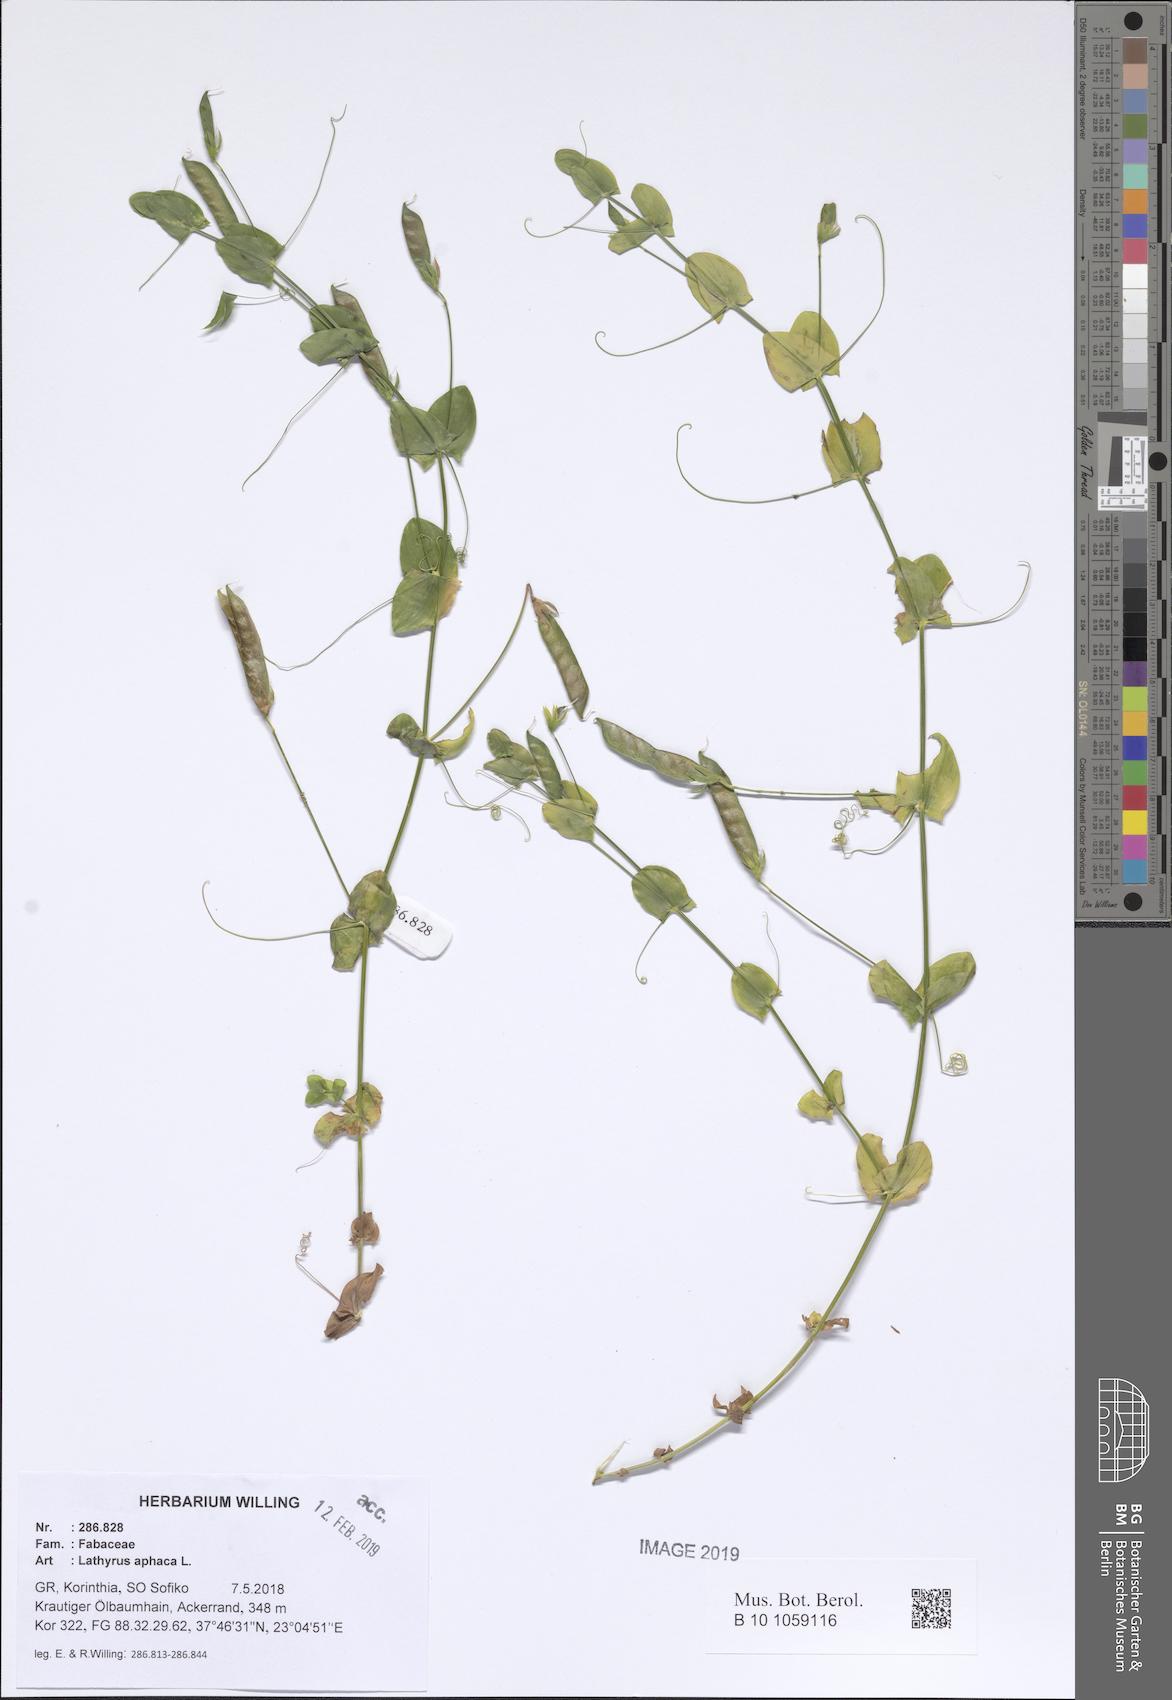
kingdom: Plantae
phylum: Tracheophyta
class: Magnoliopsida
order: Fabales
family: Fabaceae
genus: Lathyrus
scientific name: Lathyrus aphaca
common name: Yellow vetchling
